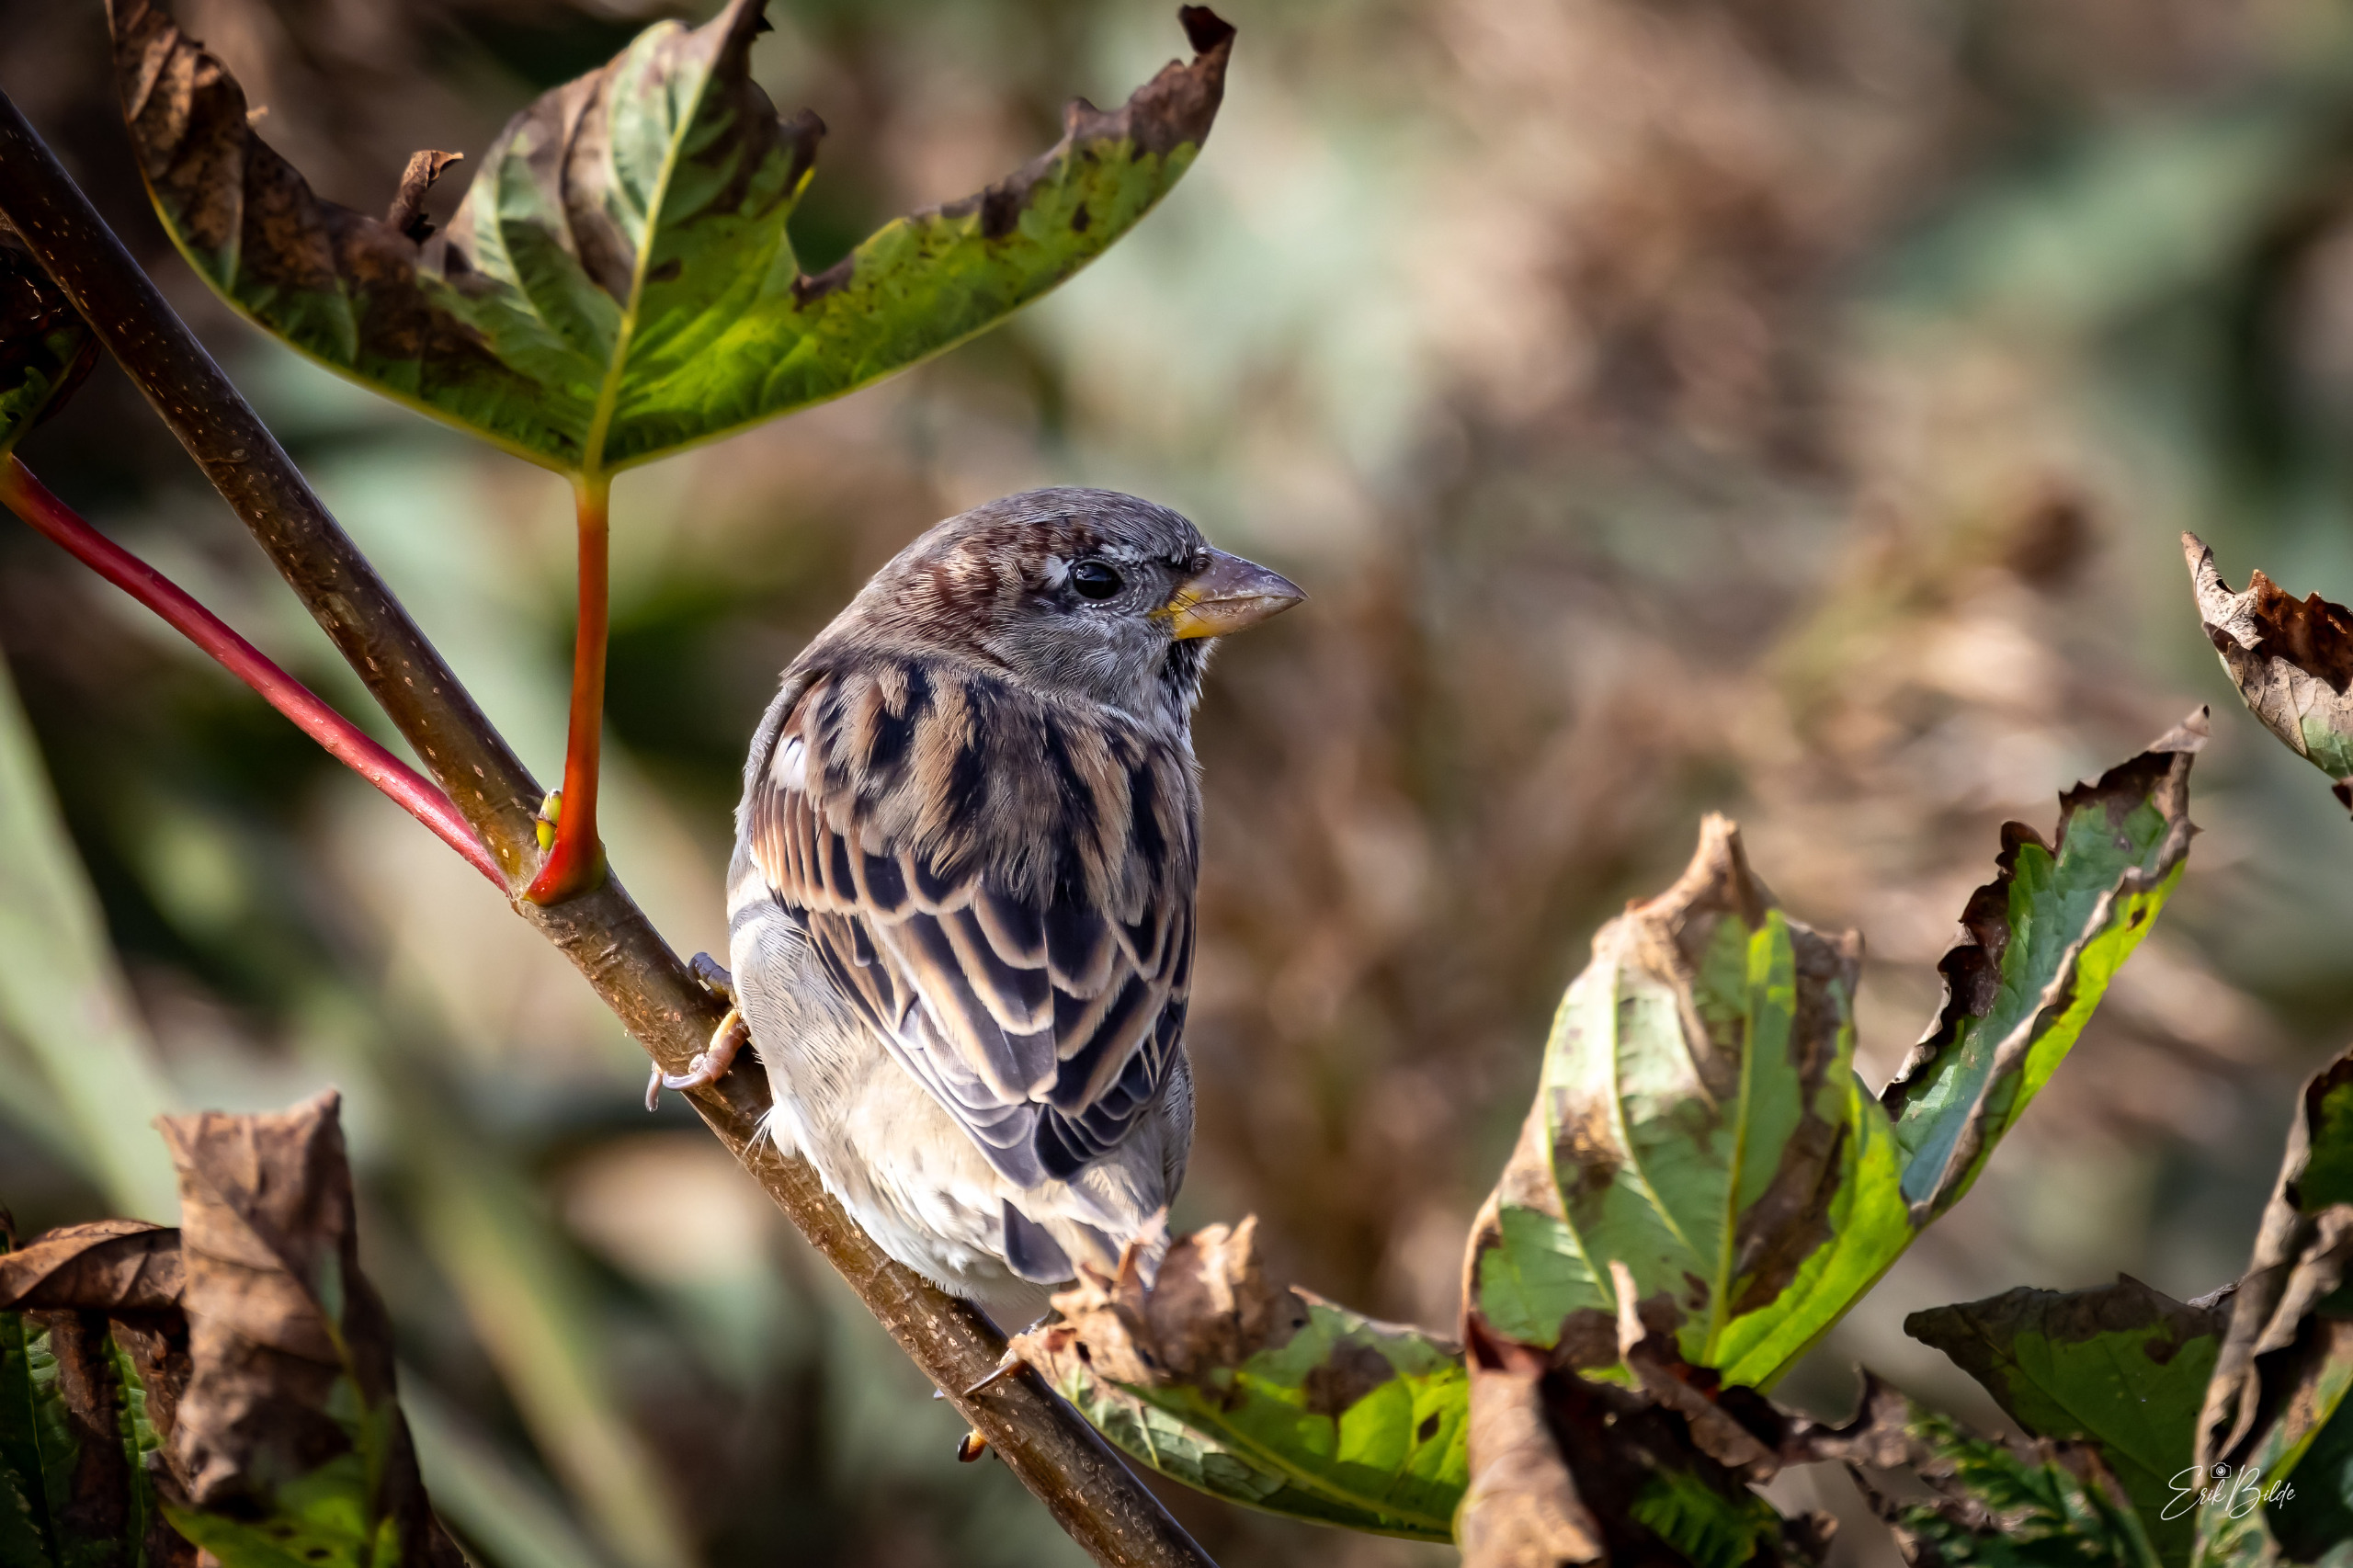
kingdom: Animalia
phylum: Chordata
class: Aves
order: Passeriformes
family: Passeridae
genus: Passer
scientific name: Passer domesticus
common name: Gråspurv
